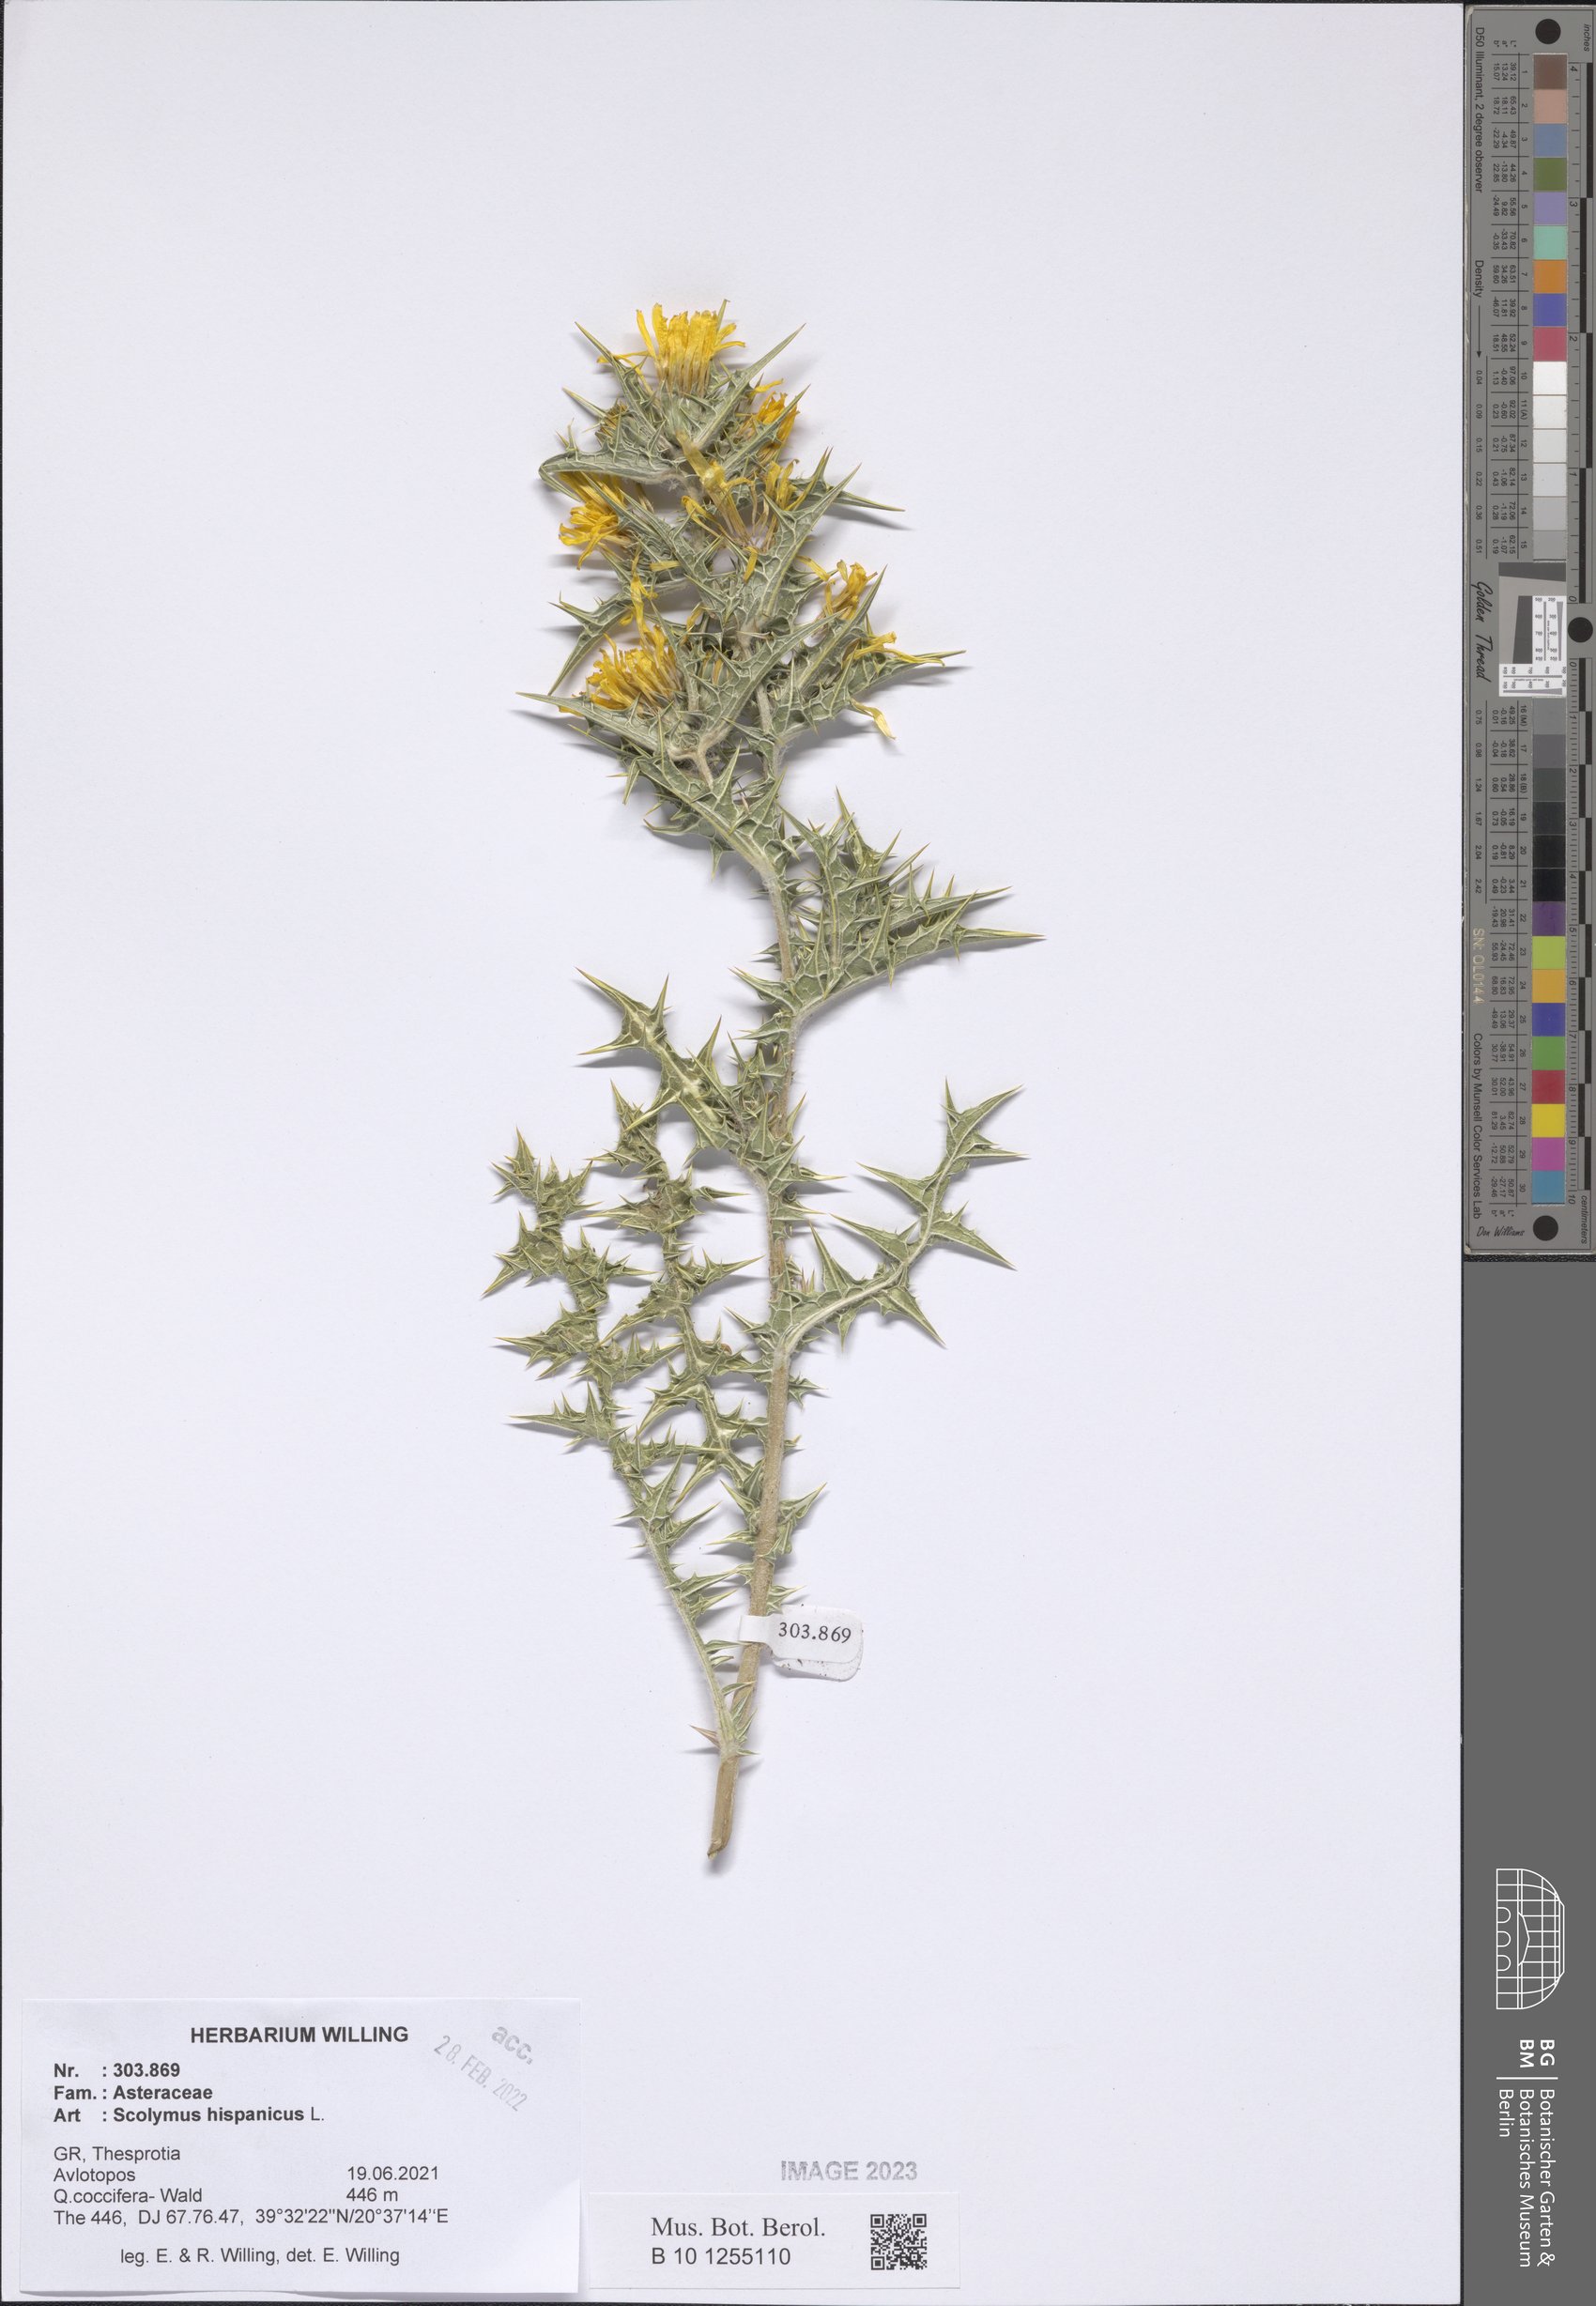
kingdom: Plantae
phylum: Tracheophyta
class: Magnoliopsida
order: Asterales
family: Asteraceae
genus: Scolymus
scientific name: Scolymus hispanicus
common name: Golden thistle
